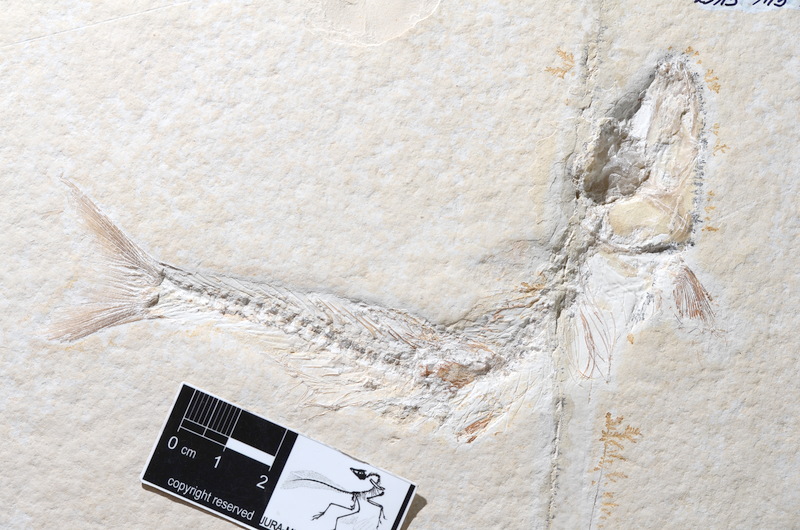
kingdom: Animalia
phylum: Chordata
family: Ascalaboidae
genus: Tharsis
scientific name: Tharsis dubius
